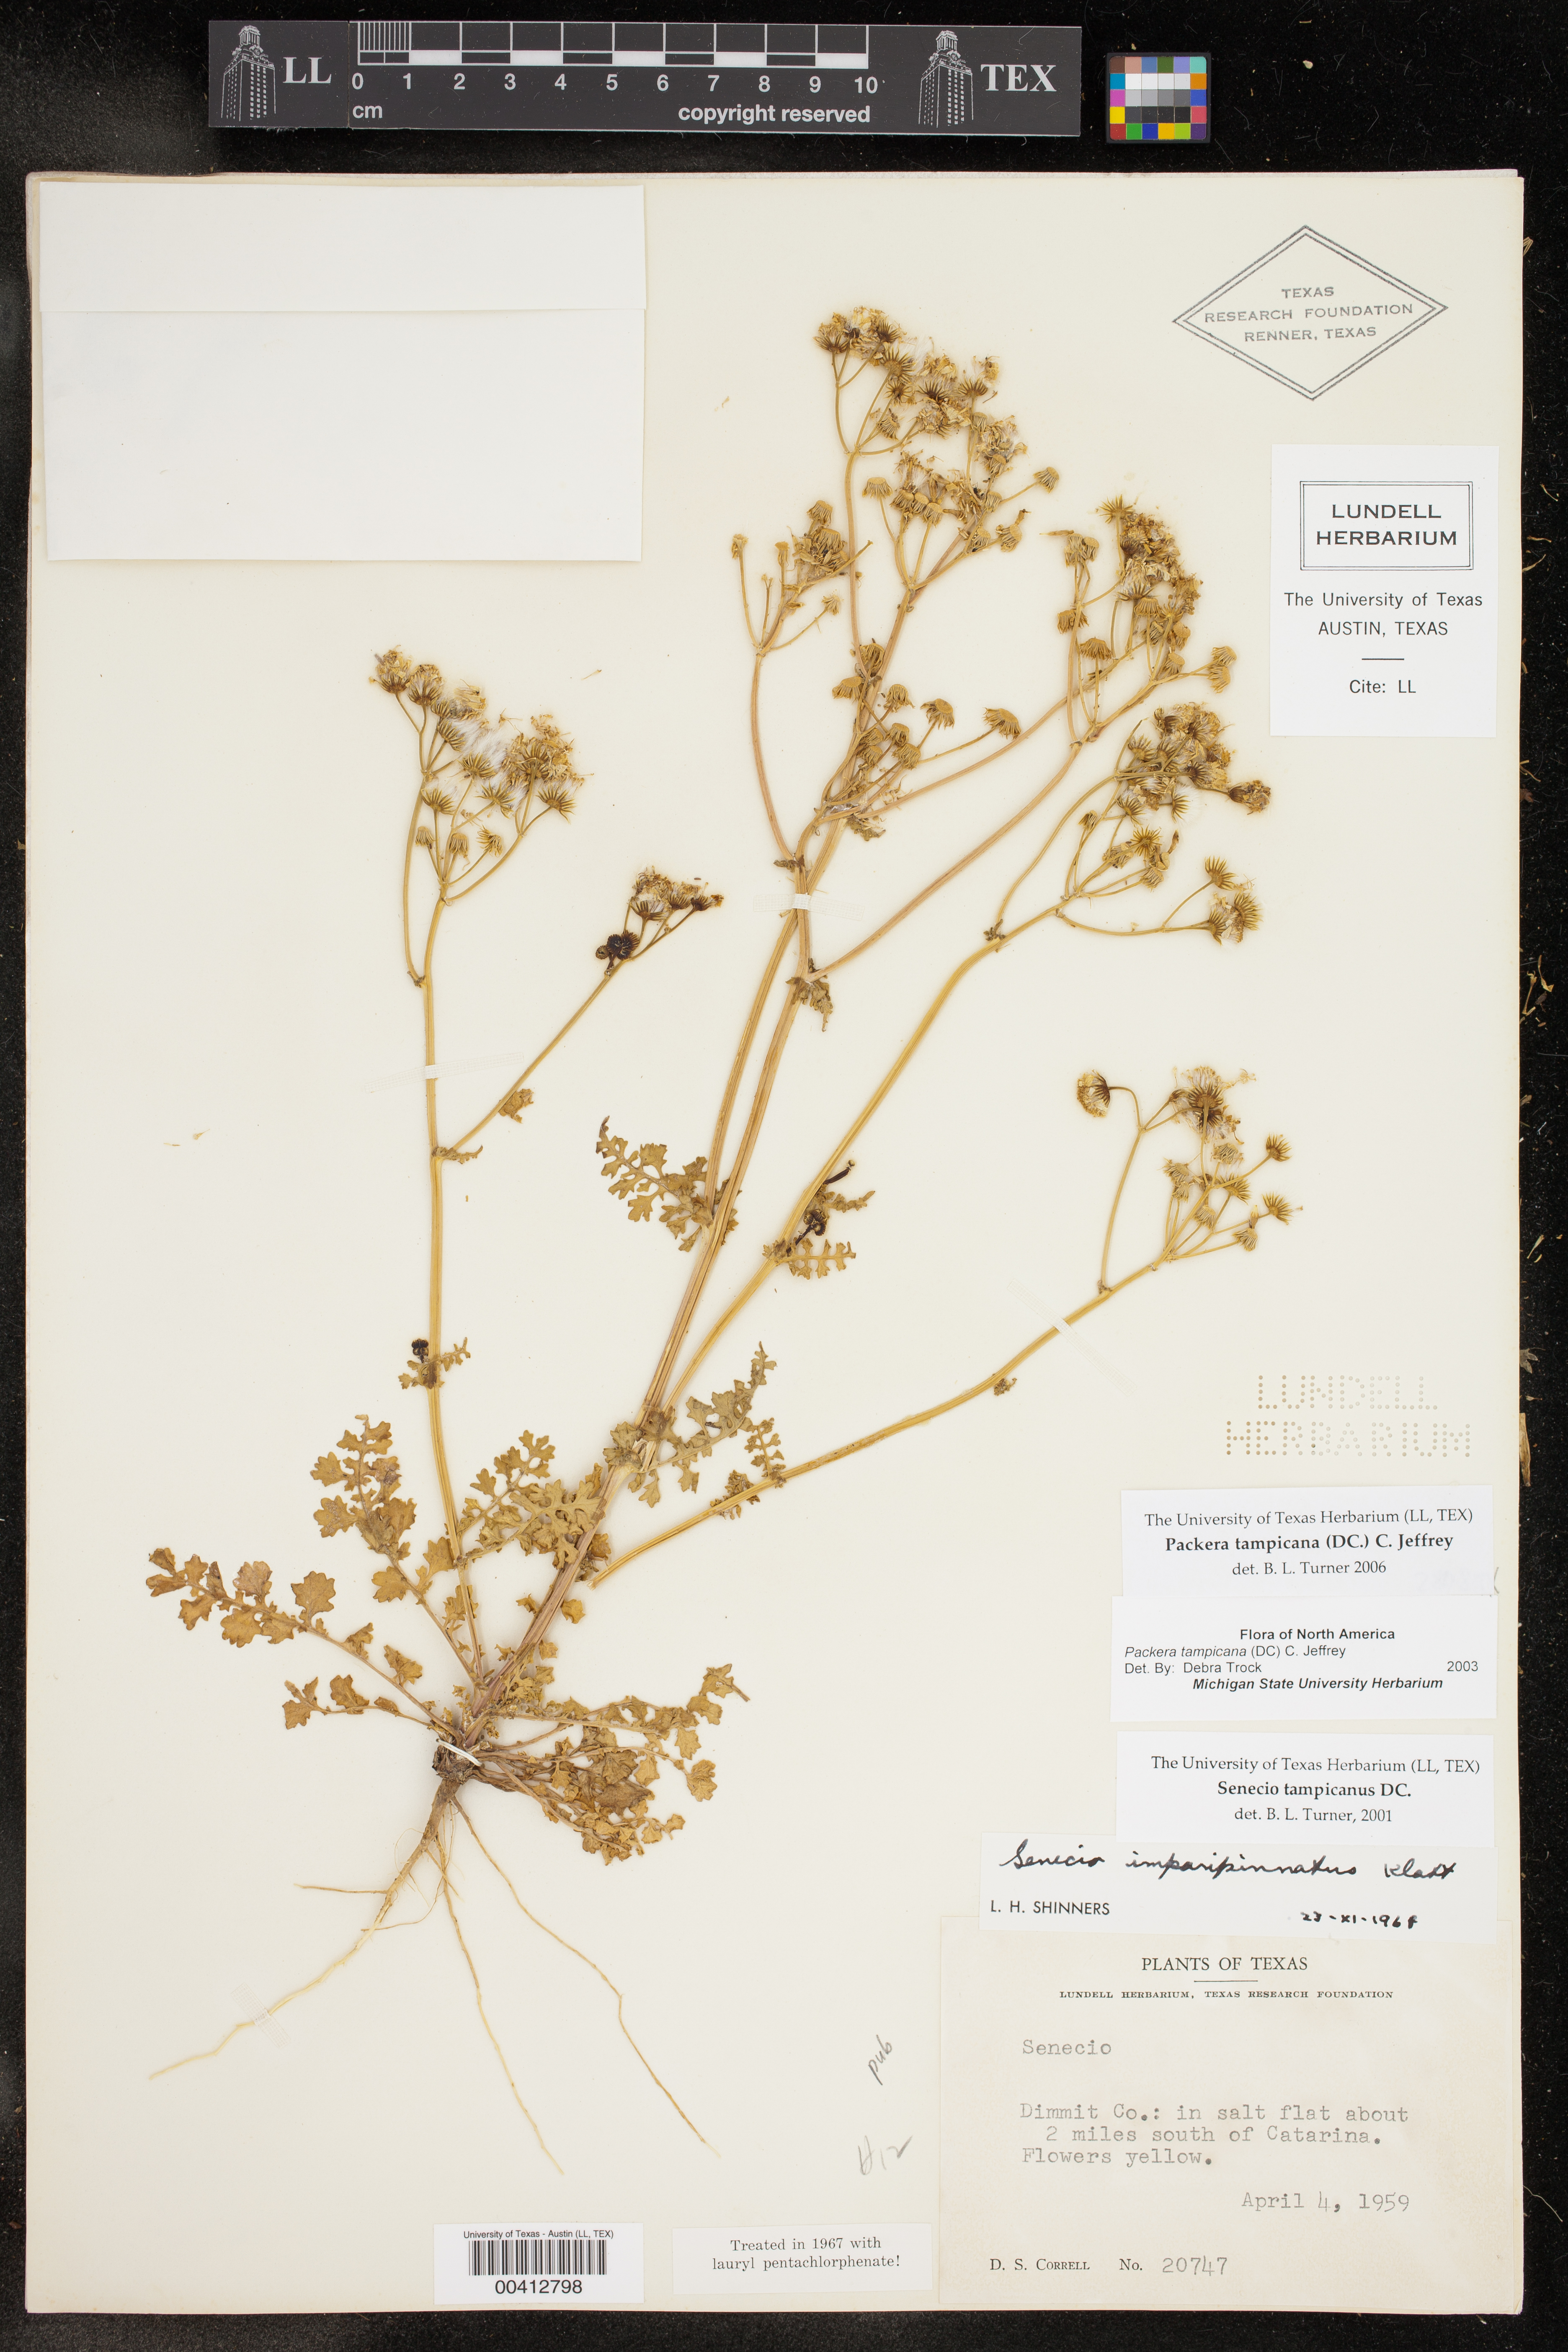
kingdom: Plantae
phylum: Tracheophyta
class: Magnoliopsida
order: Asterales
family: Asteraceae
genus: Packera
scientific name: Packera tampicana
